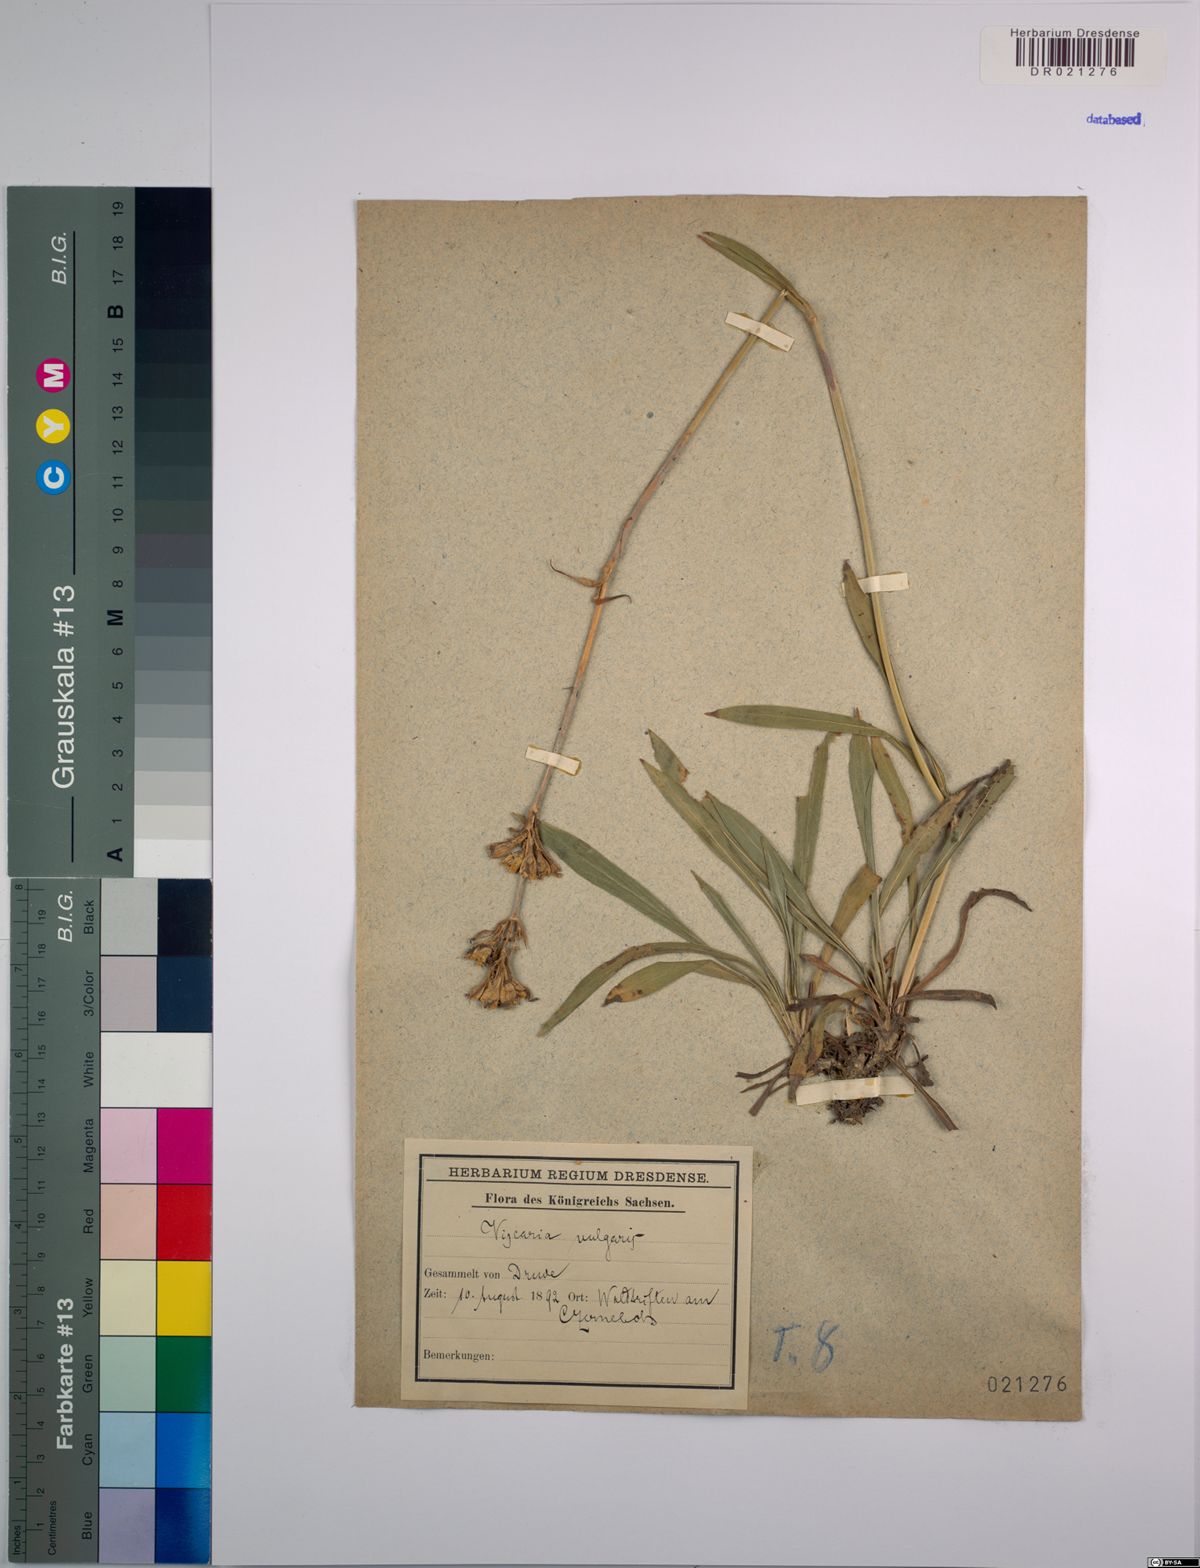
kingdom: Plantae
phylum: Tracheophyta
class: Magnoliopsida
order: Caryophyllales
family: Caryophyllaceae
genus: Viscaria
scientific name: Viscaria vulgaris
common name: Clammy campion
